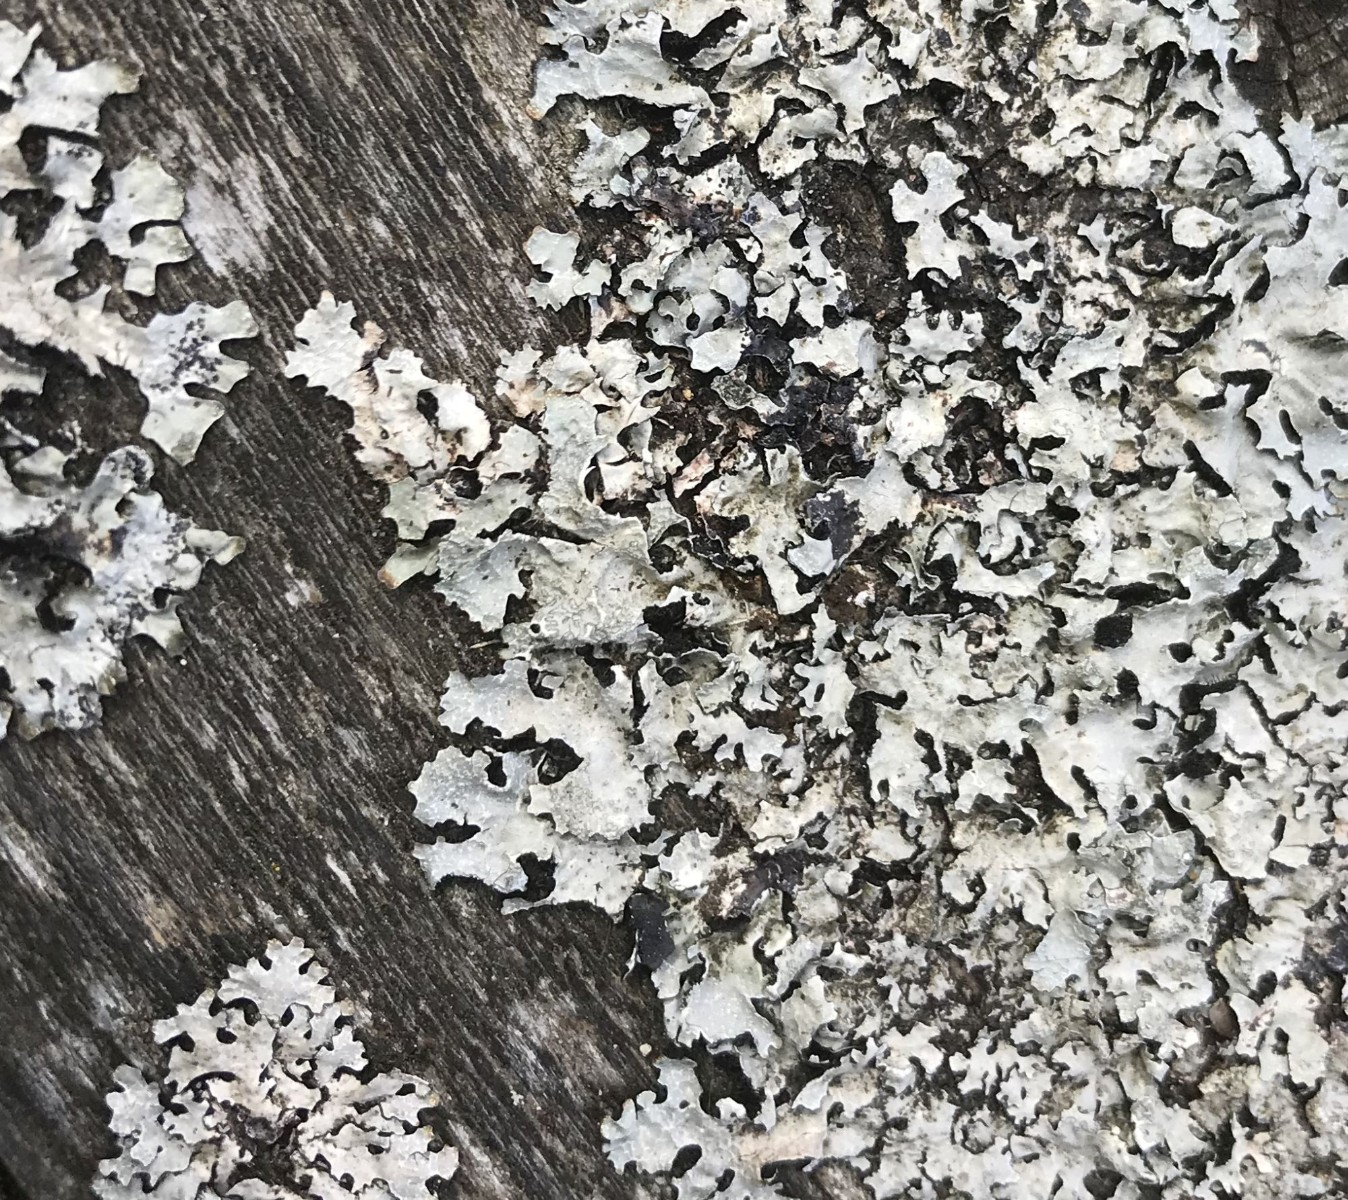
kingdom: Fungi
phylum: Ascomycota
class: Lecanoromycetes
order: Lecanorales
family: Parmeliaceae
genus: Parmelia
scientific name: Parmelia sulcata
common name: rynket skållav
